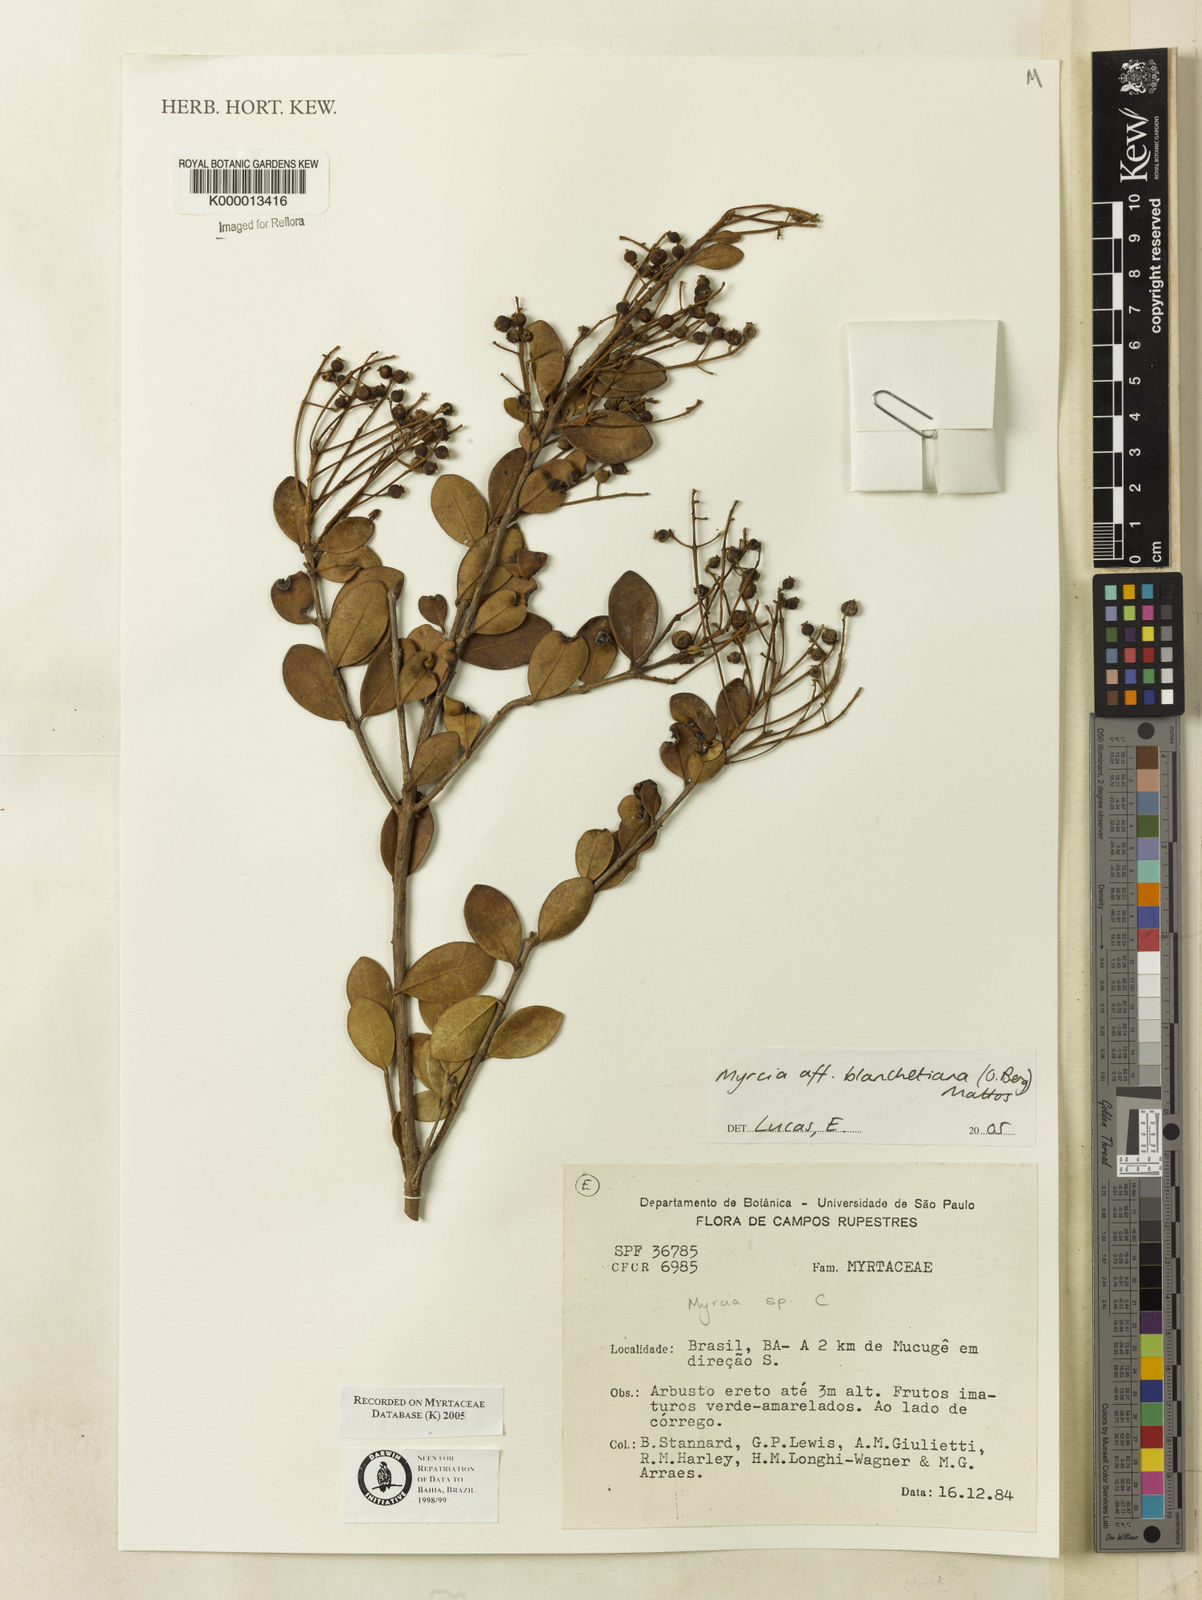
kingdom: Plantae
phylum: Tracheophyta
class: Magnoliopsida
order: Myrtales
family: Myrtaceae
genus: Myrcia
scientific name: Myrcia
